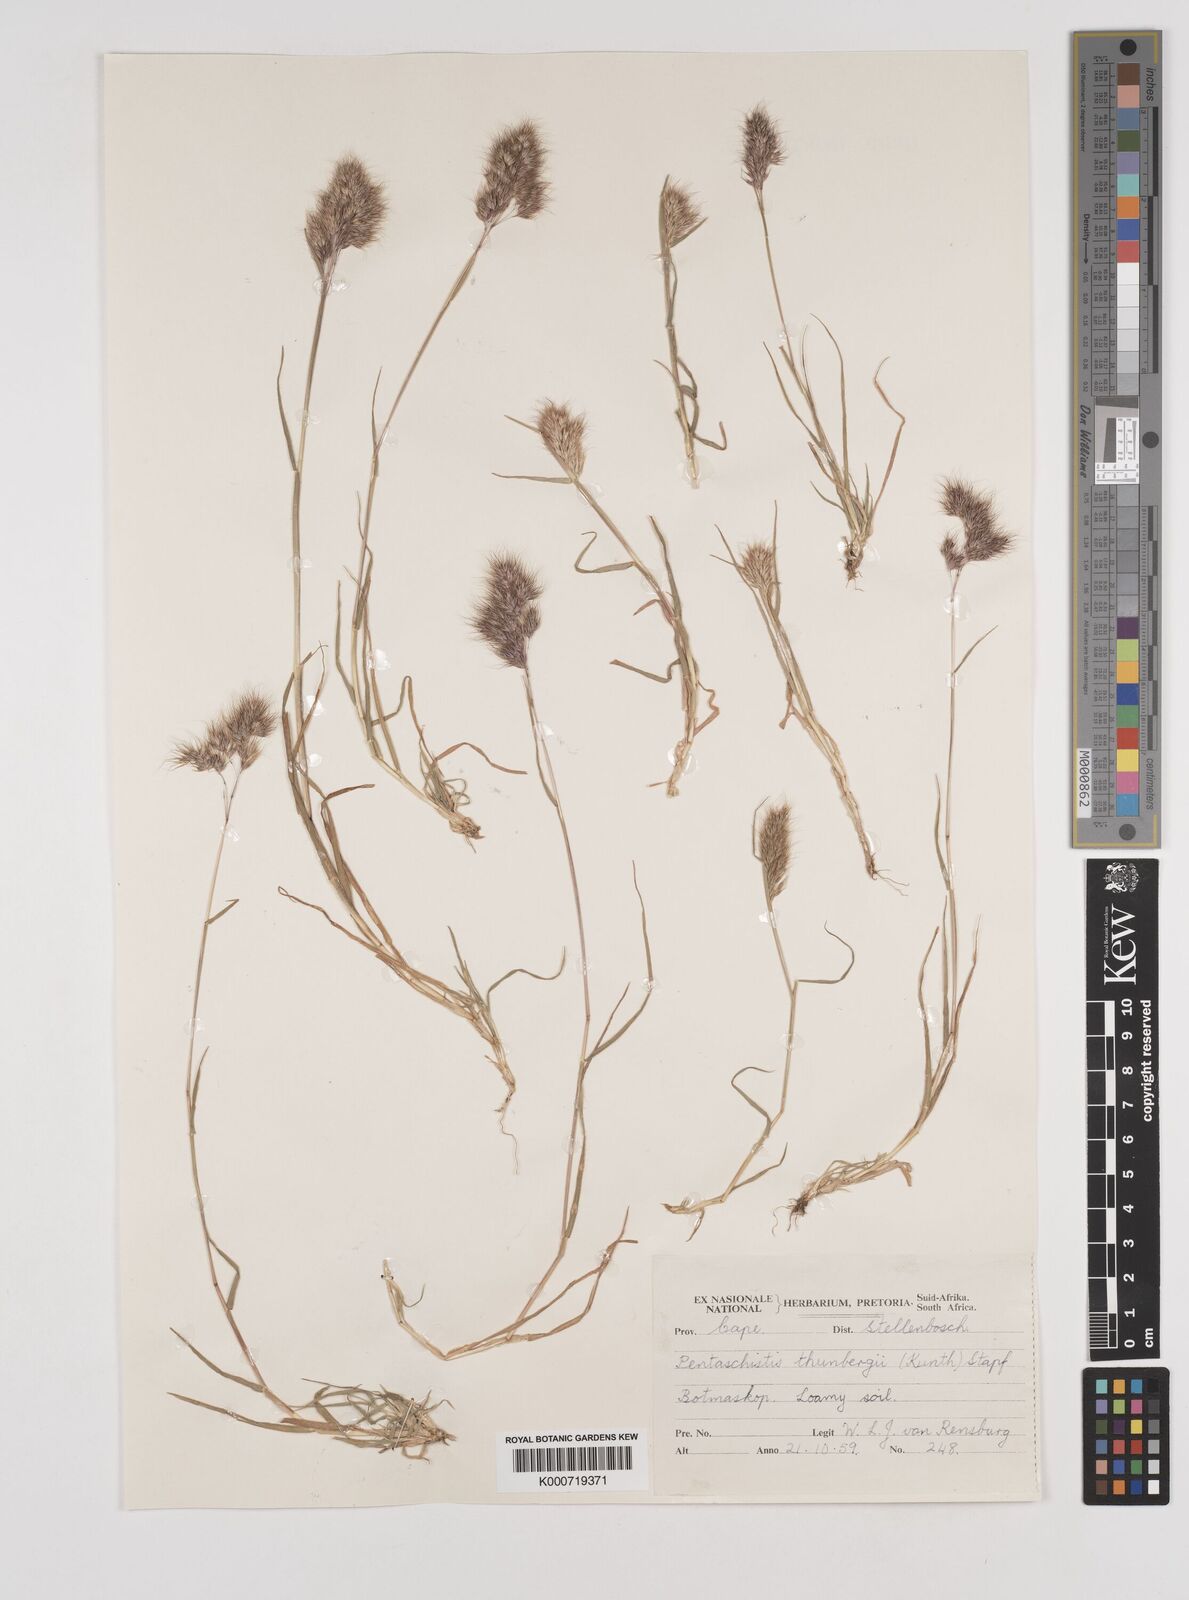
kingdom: Plantae
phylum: Tracheophyta
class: Liliopsida
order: Poales
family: Poaceae
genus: Pentameris
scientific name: Pentameris triseta
